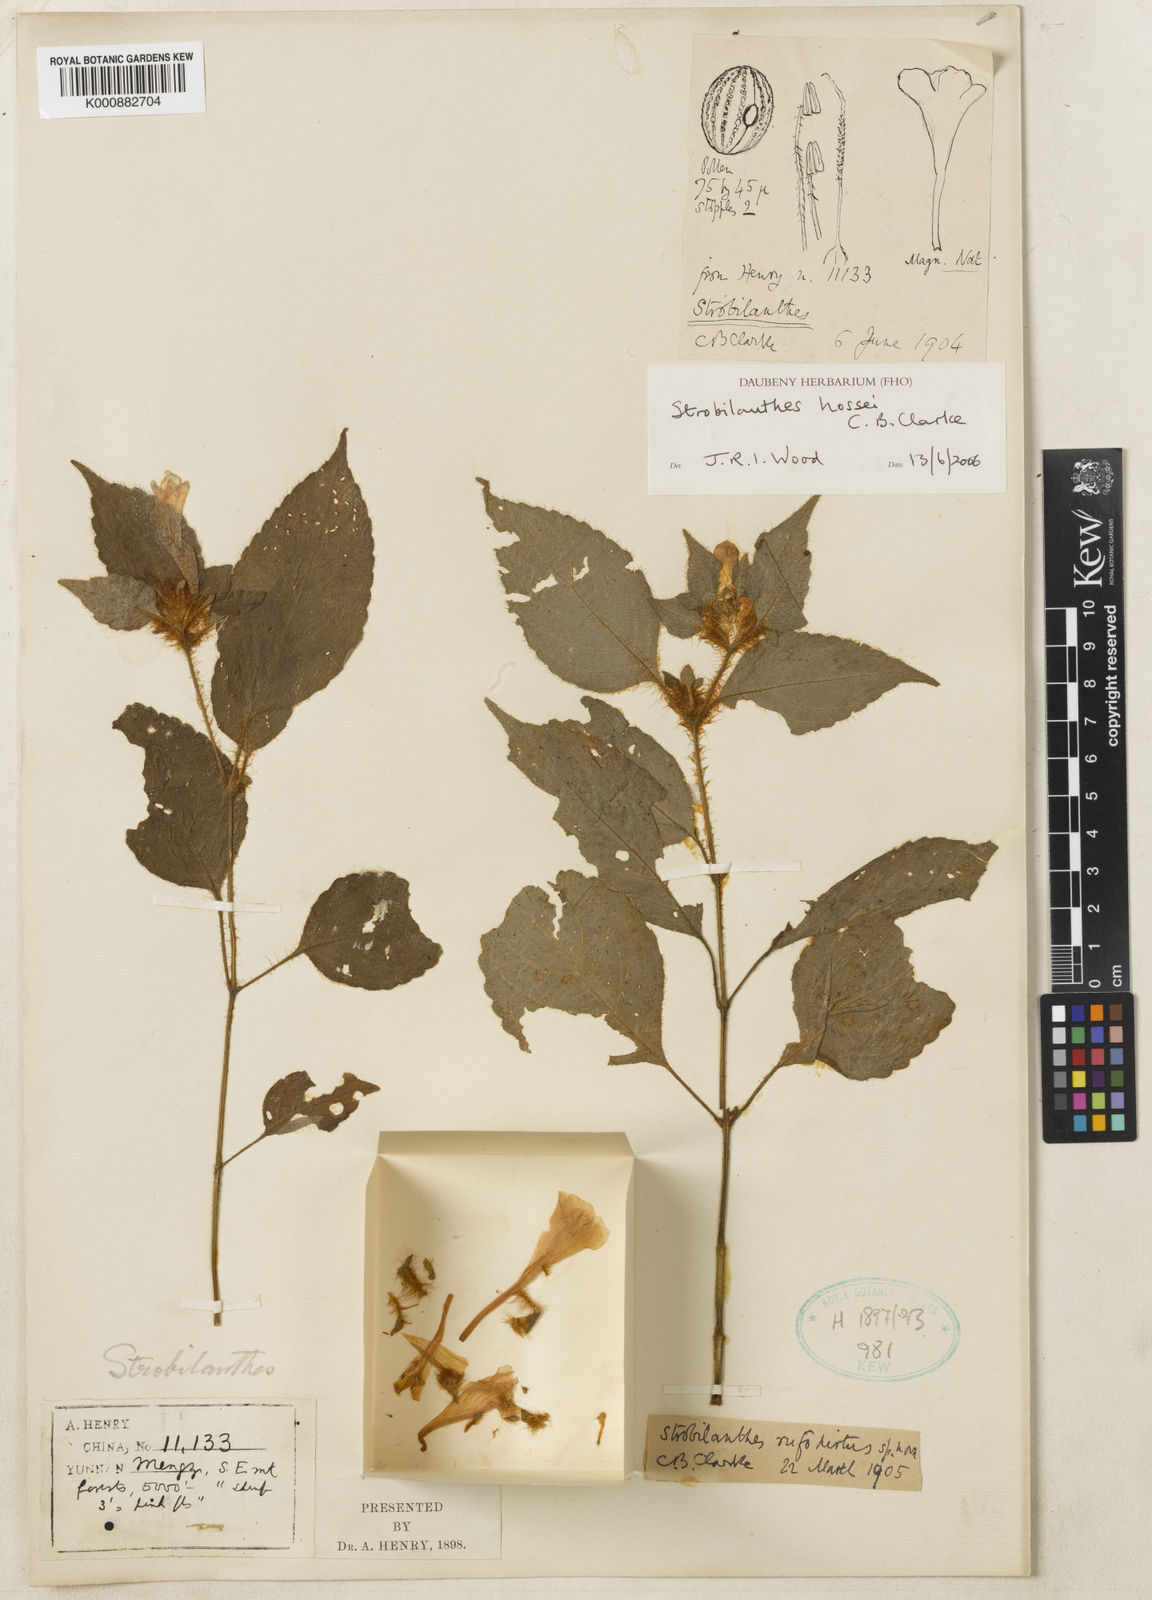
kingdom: Plantae
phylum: Tracheophyta
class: Magnoliopsida
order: Lamiales
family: Acanthaceae
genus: Strobilanthes
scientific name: Strobilanthes hossei
